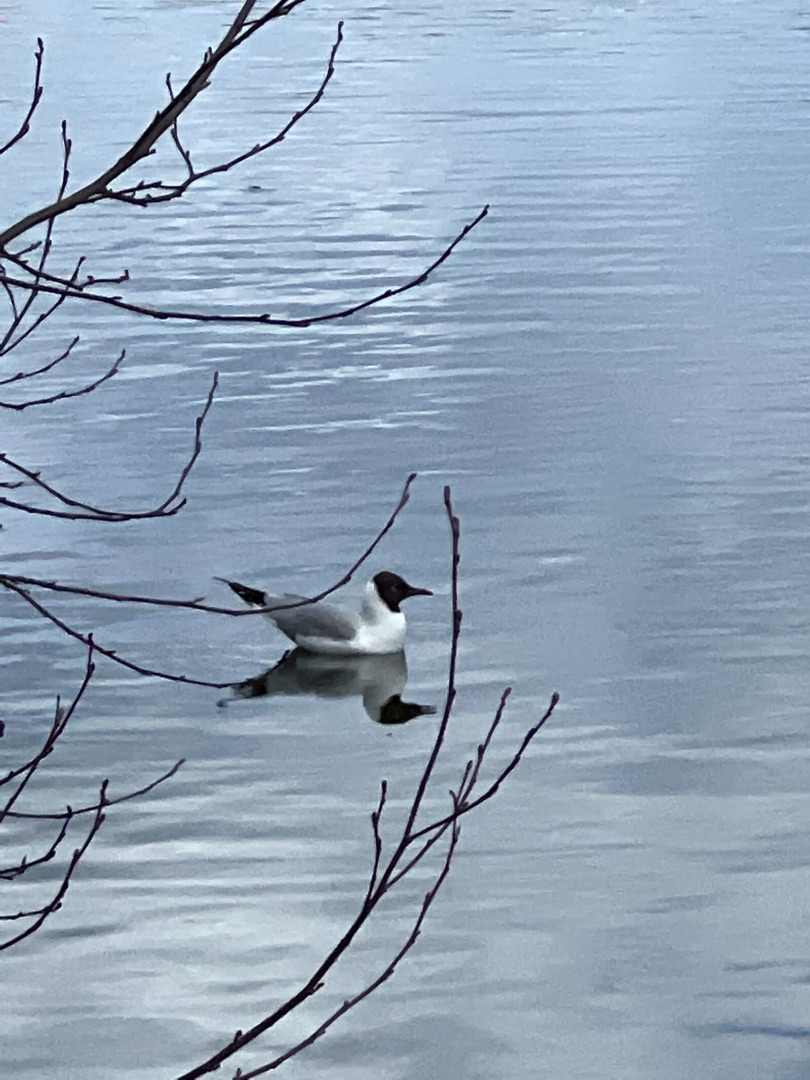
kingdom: Animalia
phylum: Chordata
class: Aves
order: Charadriiformes
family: Laridae
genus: Chroicocephalus
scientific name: Chroicocephalus ridibundus
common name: Hættemåge
